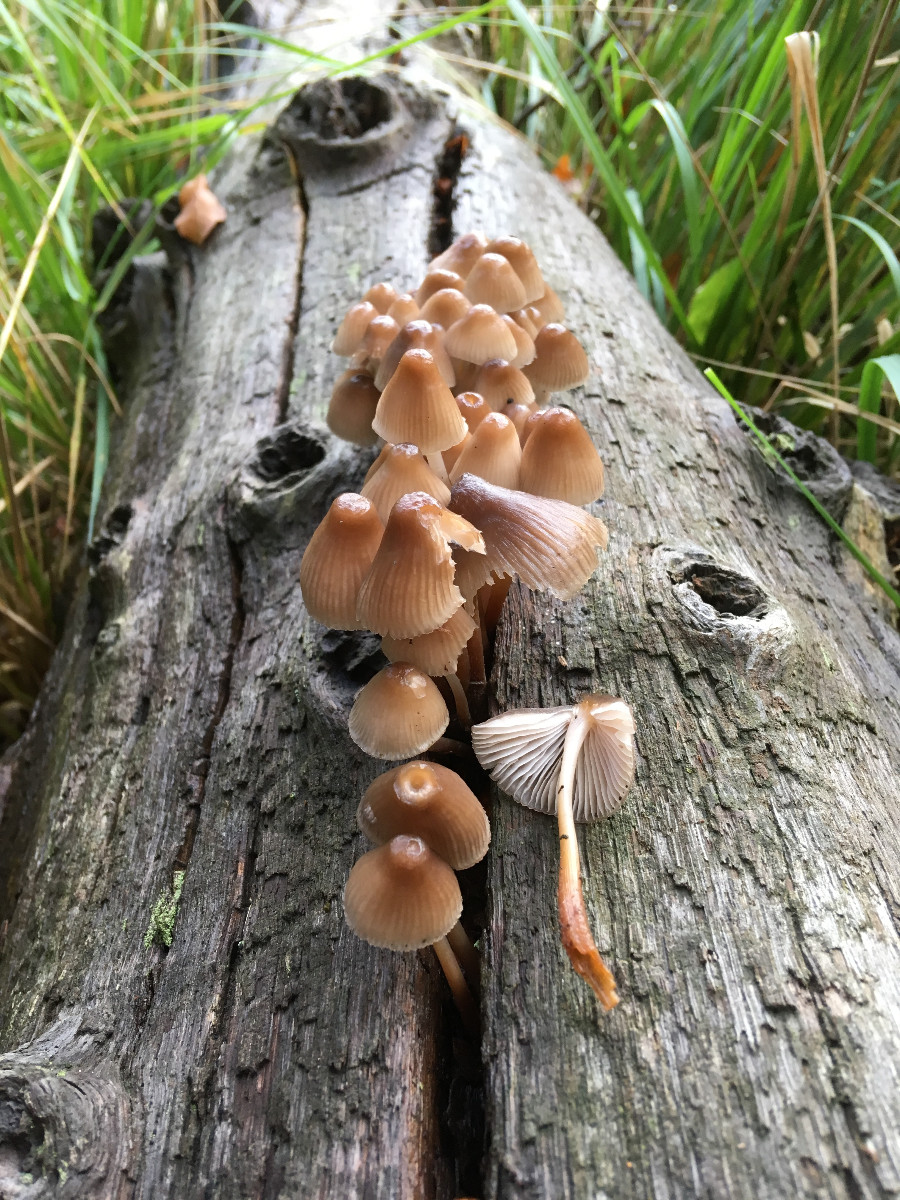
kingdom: Fungi
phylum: Basidiomycota
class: Agaricomycetes
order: Agaricales
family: Mycenaceae
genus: Mycena
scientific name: Mycena
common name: huesvamp
